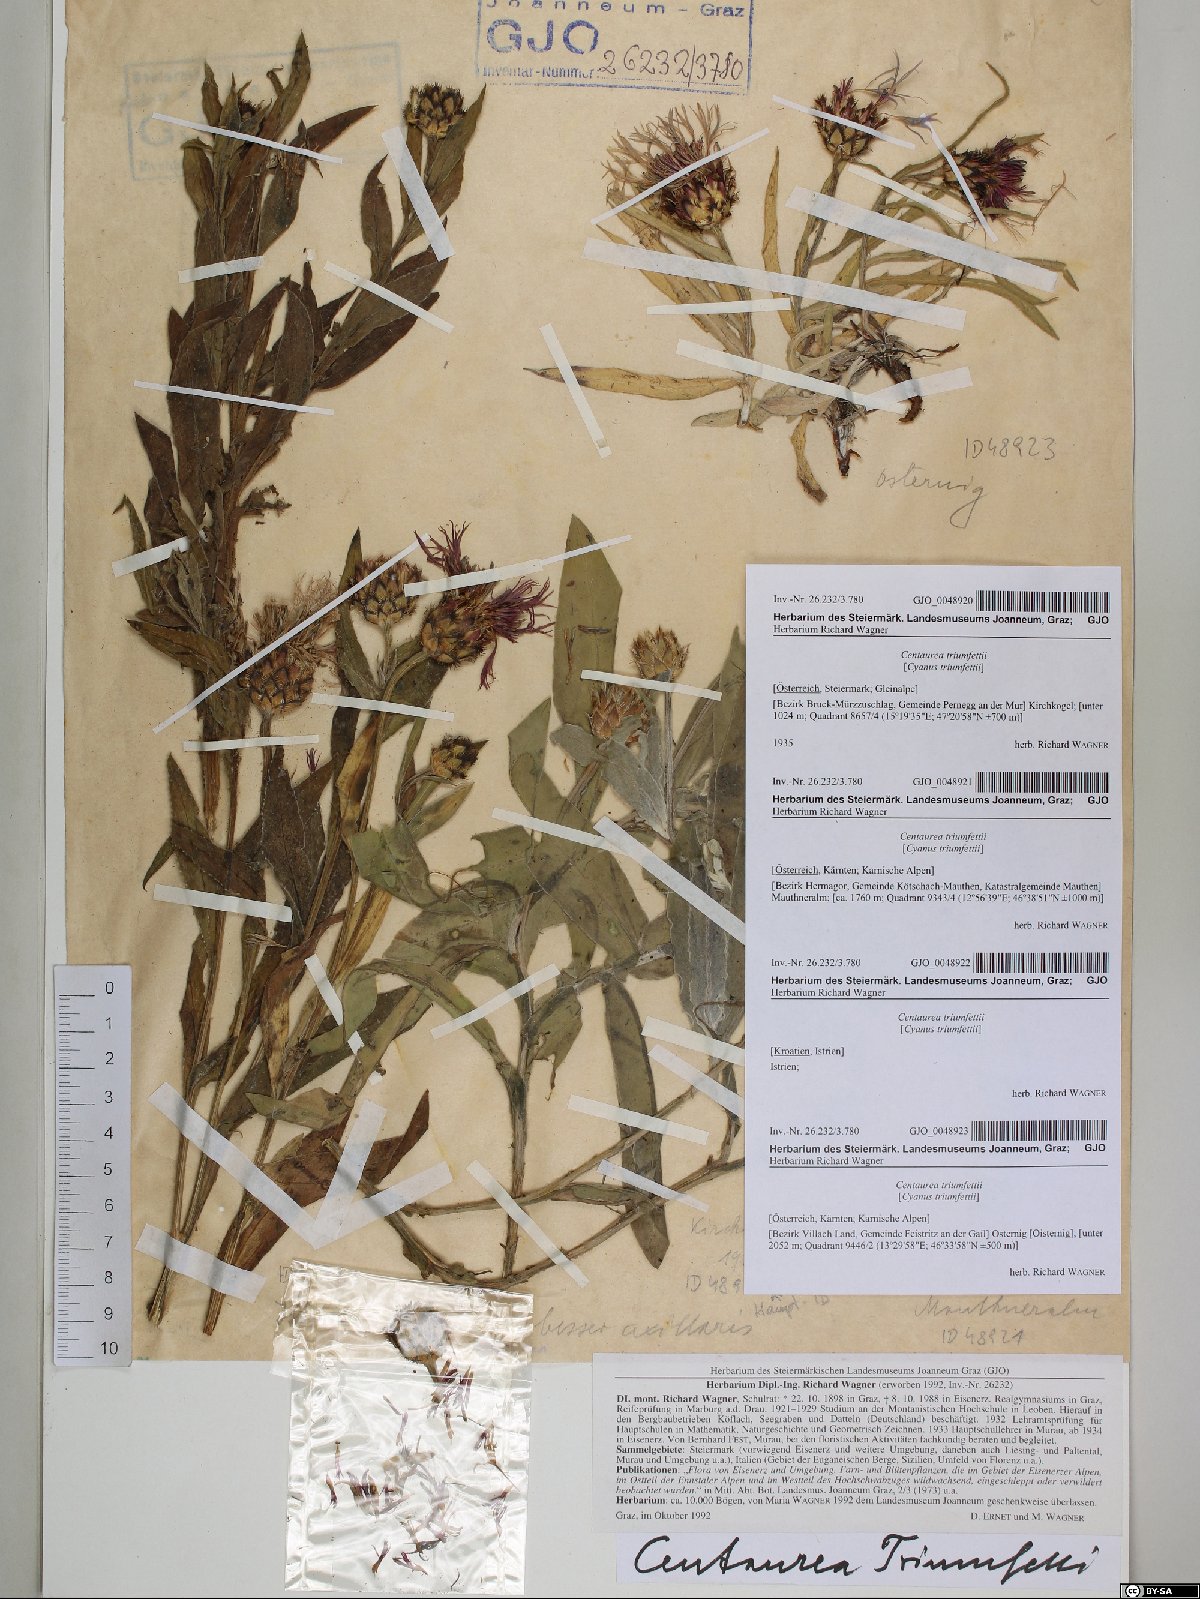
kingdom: Plantae
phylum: Tracheophyta
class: Magnoliopsida
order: Asterales
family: Asteraceae
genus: Centaurea
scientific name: Centaurea triumfettii
